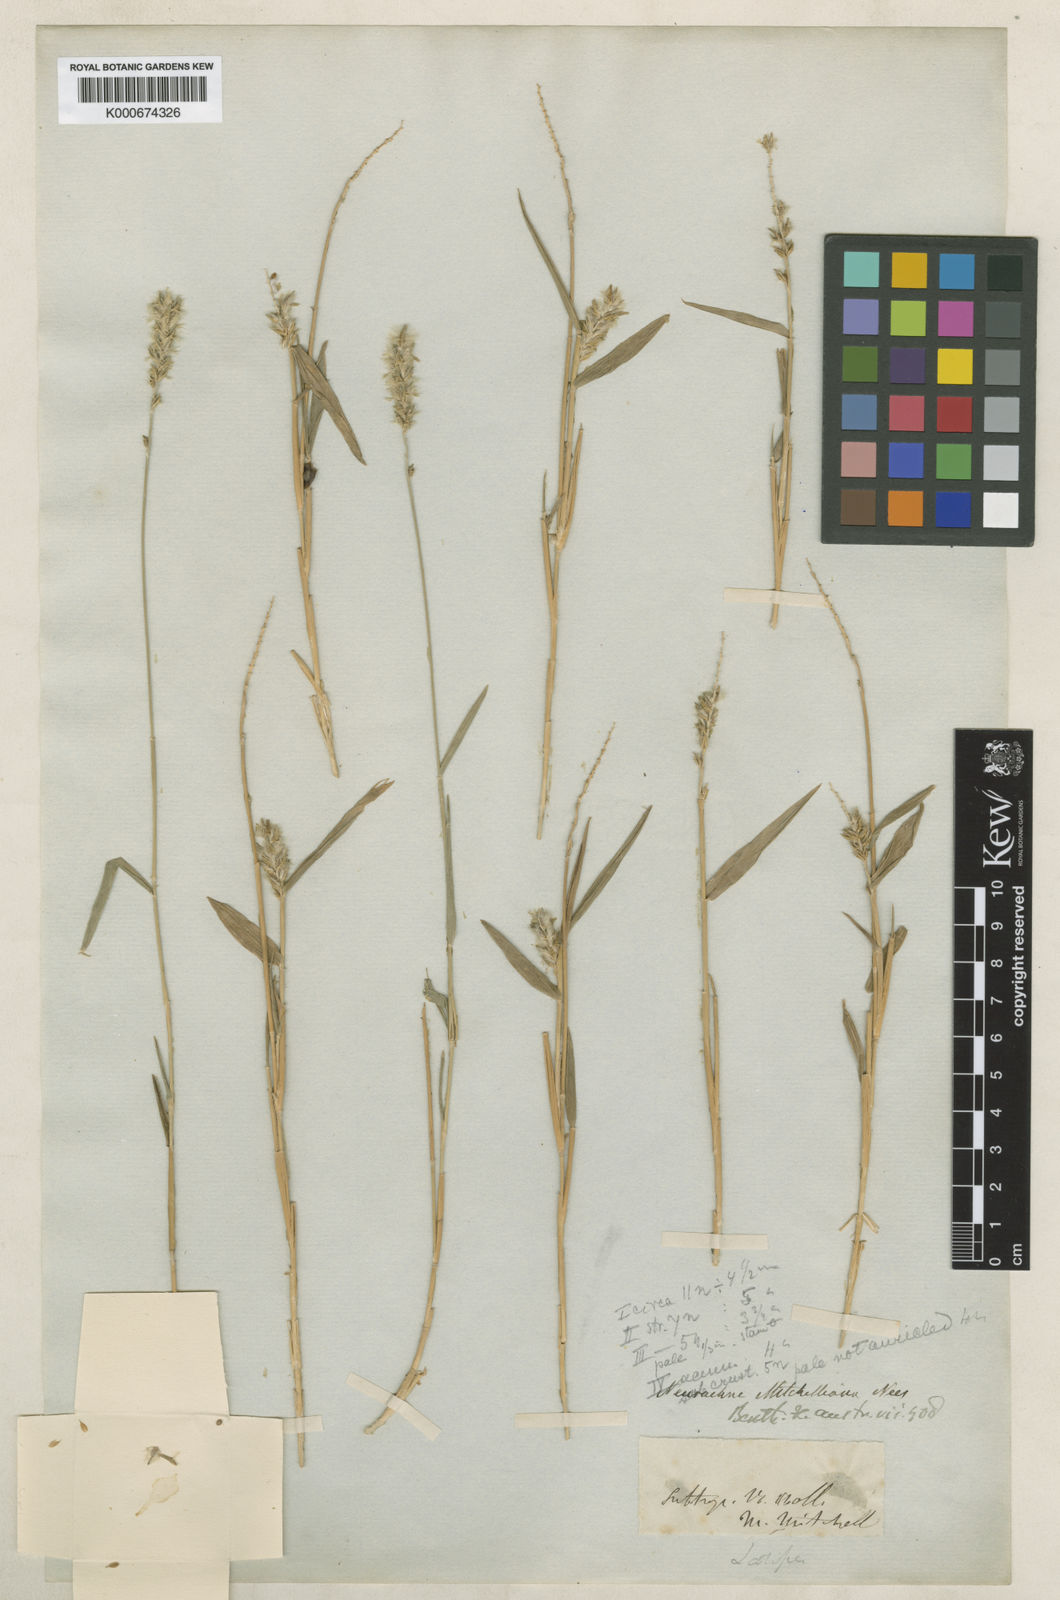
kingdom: Plantae
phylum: Tracheophyta
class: Liliopsida
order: Poales
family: Poaceae
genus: Thyridolepis
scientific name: Thyridolepis mitchelliana
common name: Rock tassel grass
